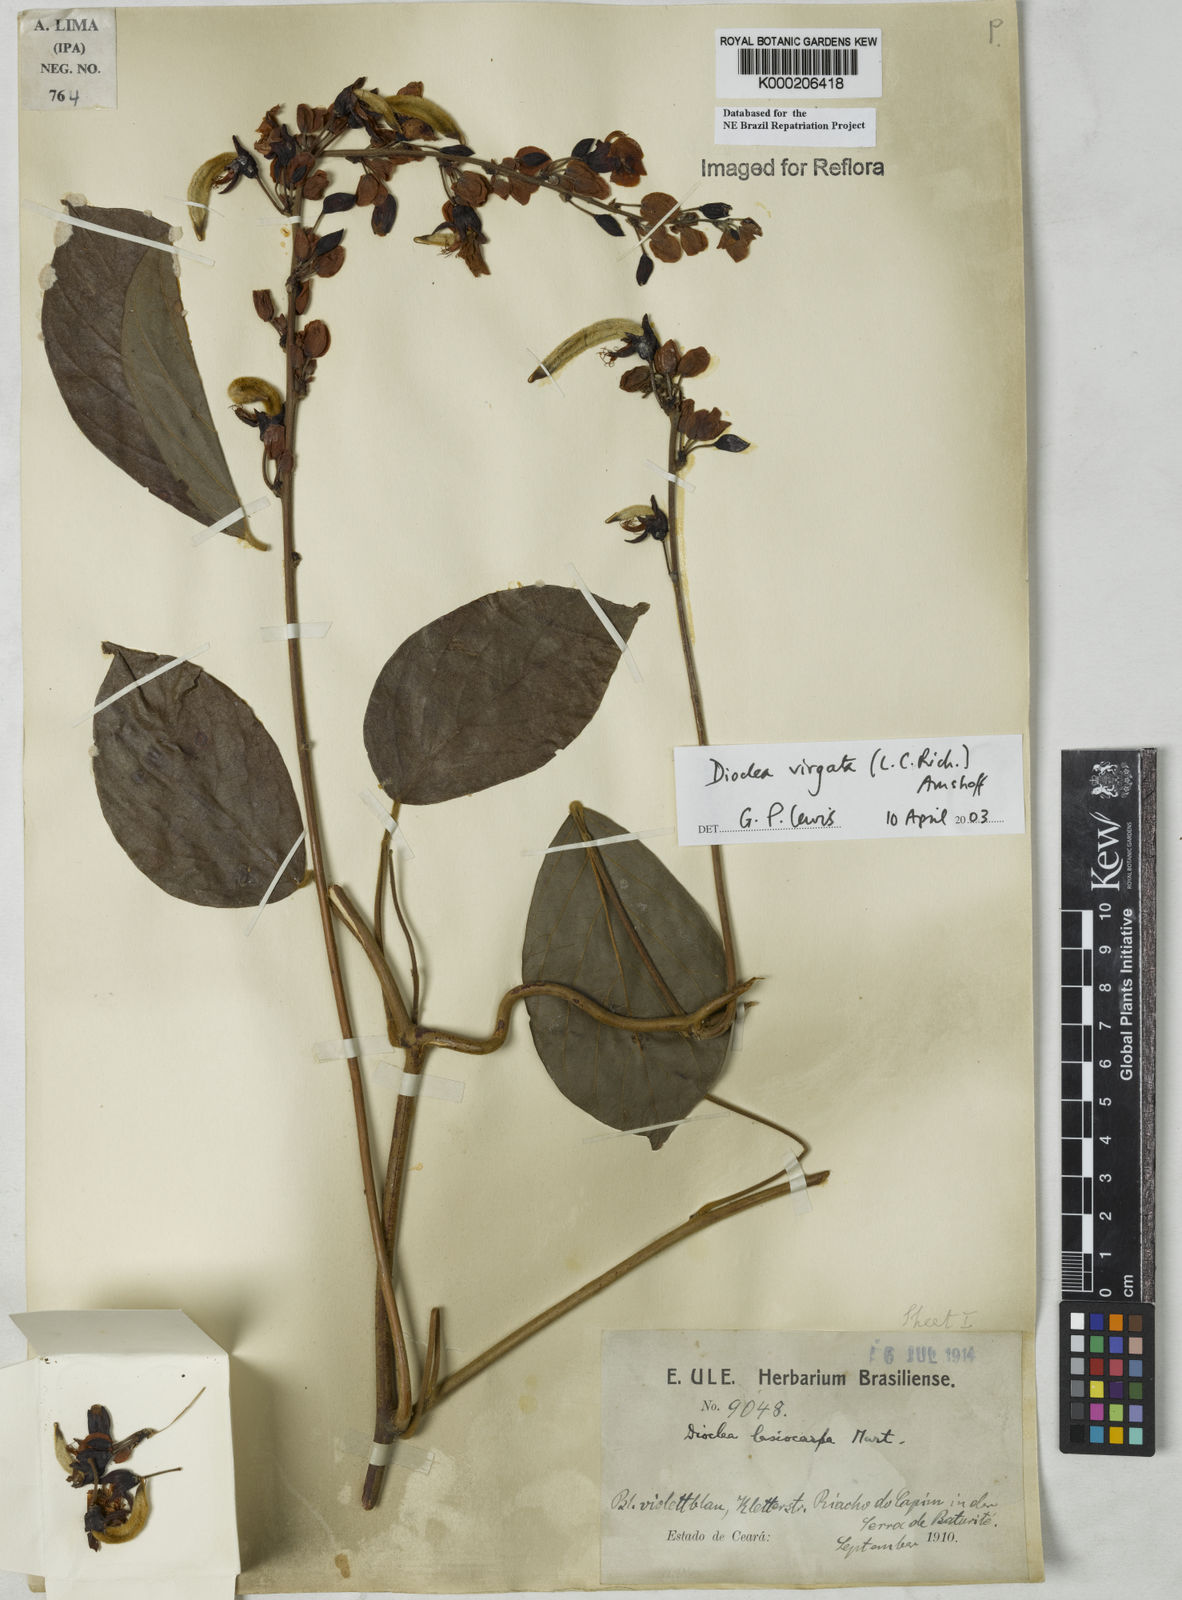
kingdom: Plantae
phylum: Tracheophyta
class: Magnoliopsida
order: Fabales
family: Fabaceae
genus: Dioclea
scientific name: Dioclea virgata
